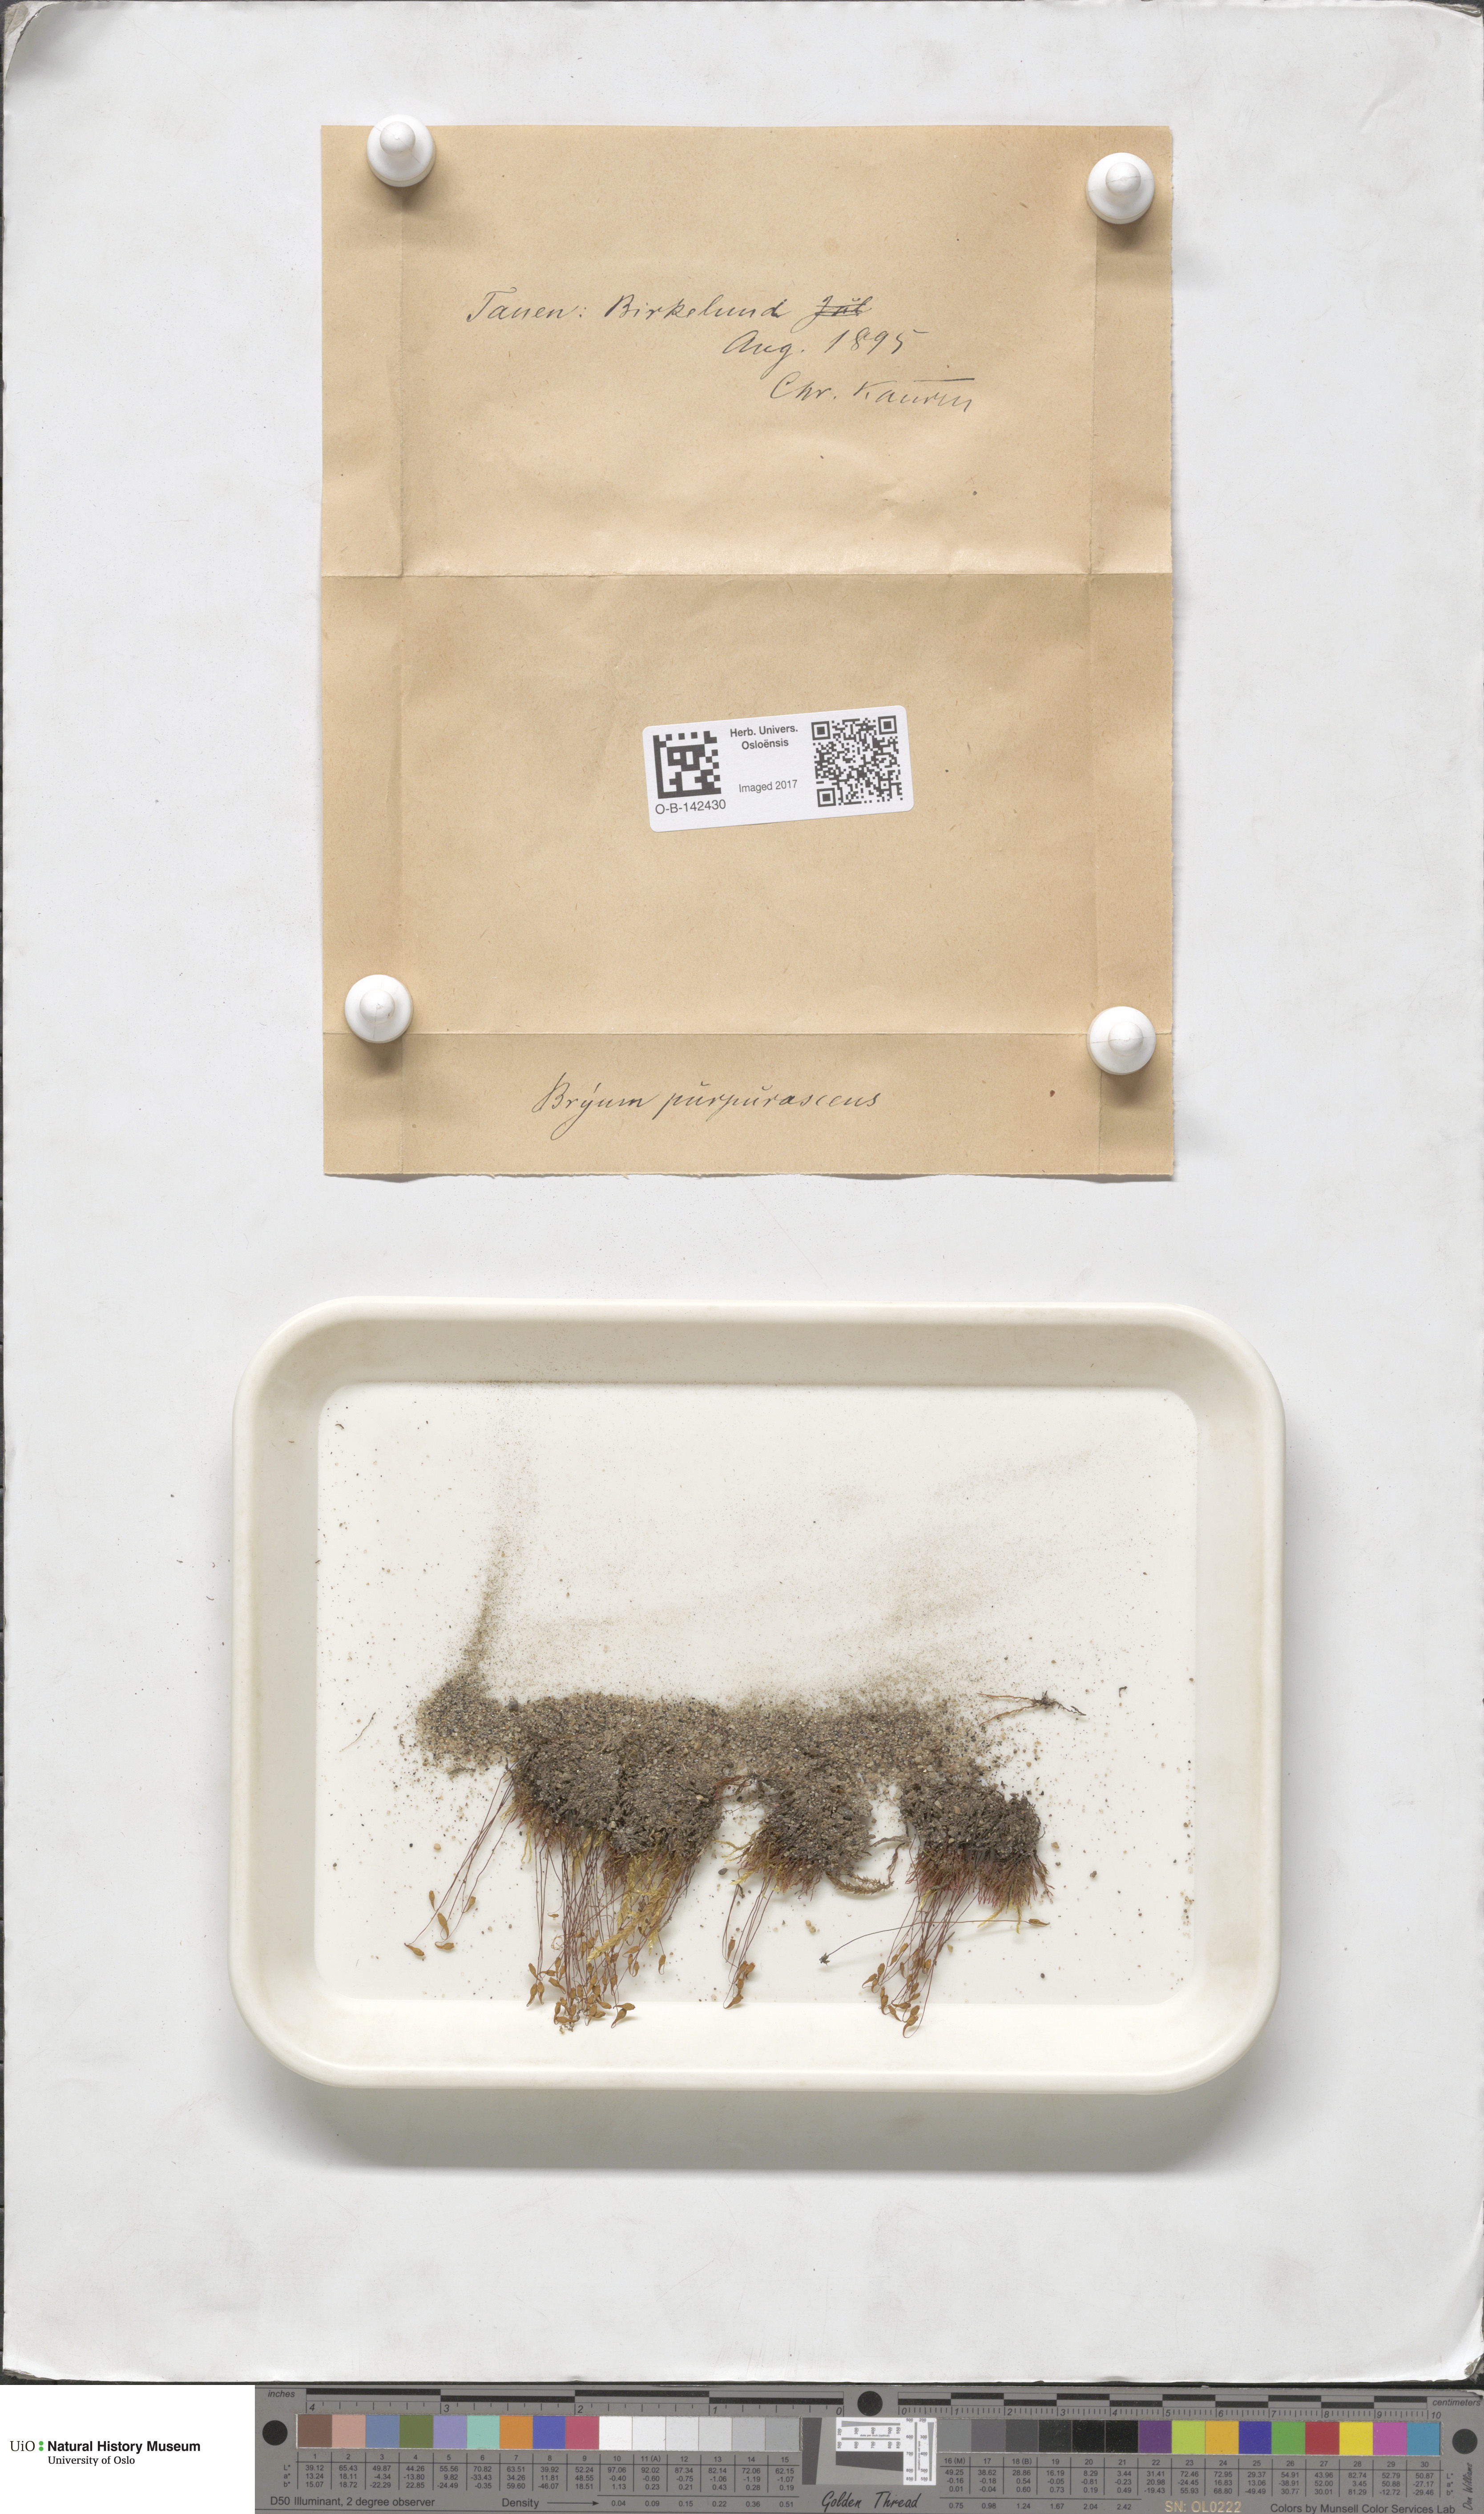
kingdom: Plantae
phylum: Bryophyta
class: Bryopsida
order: Bryales
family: Bryaceae
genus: Ptychostomum
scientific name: Ptychostomum arcticum
